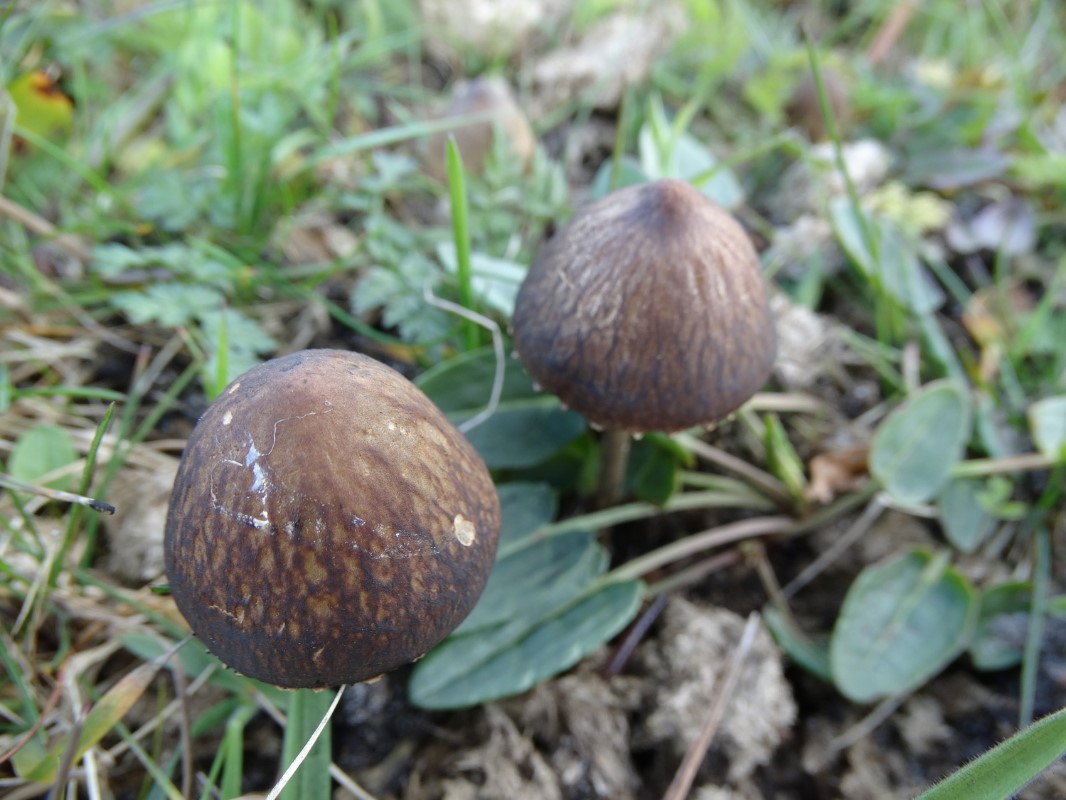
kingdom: Fungi
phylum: Basidiomycota
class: Agaricomycetes
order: Agaricales
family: Bolbitiaceae
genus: Panaeolus
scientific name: Panaeolus papilionaceus
